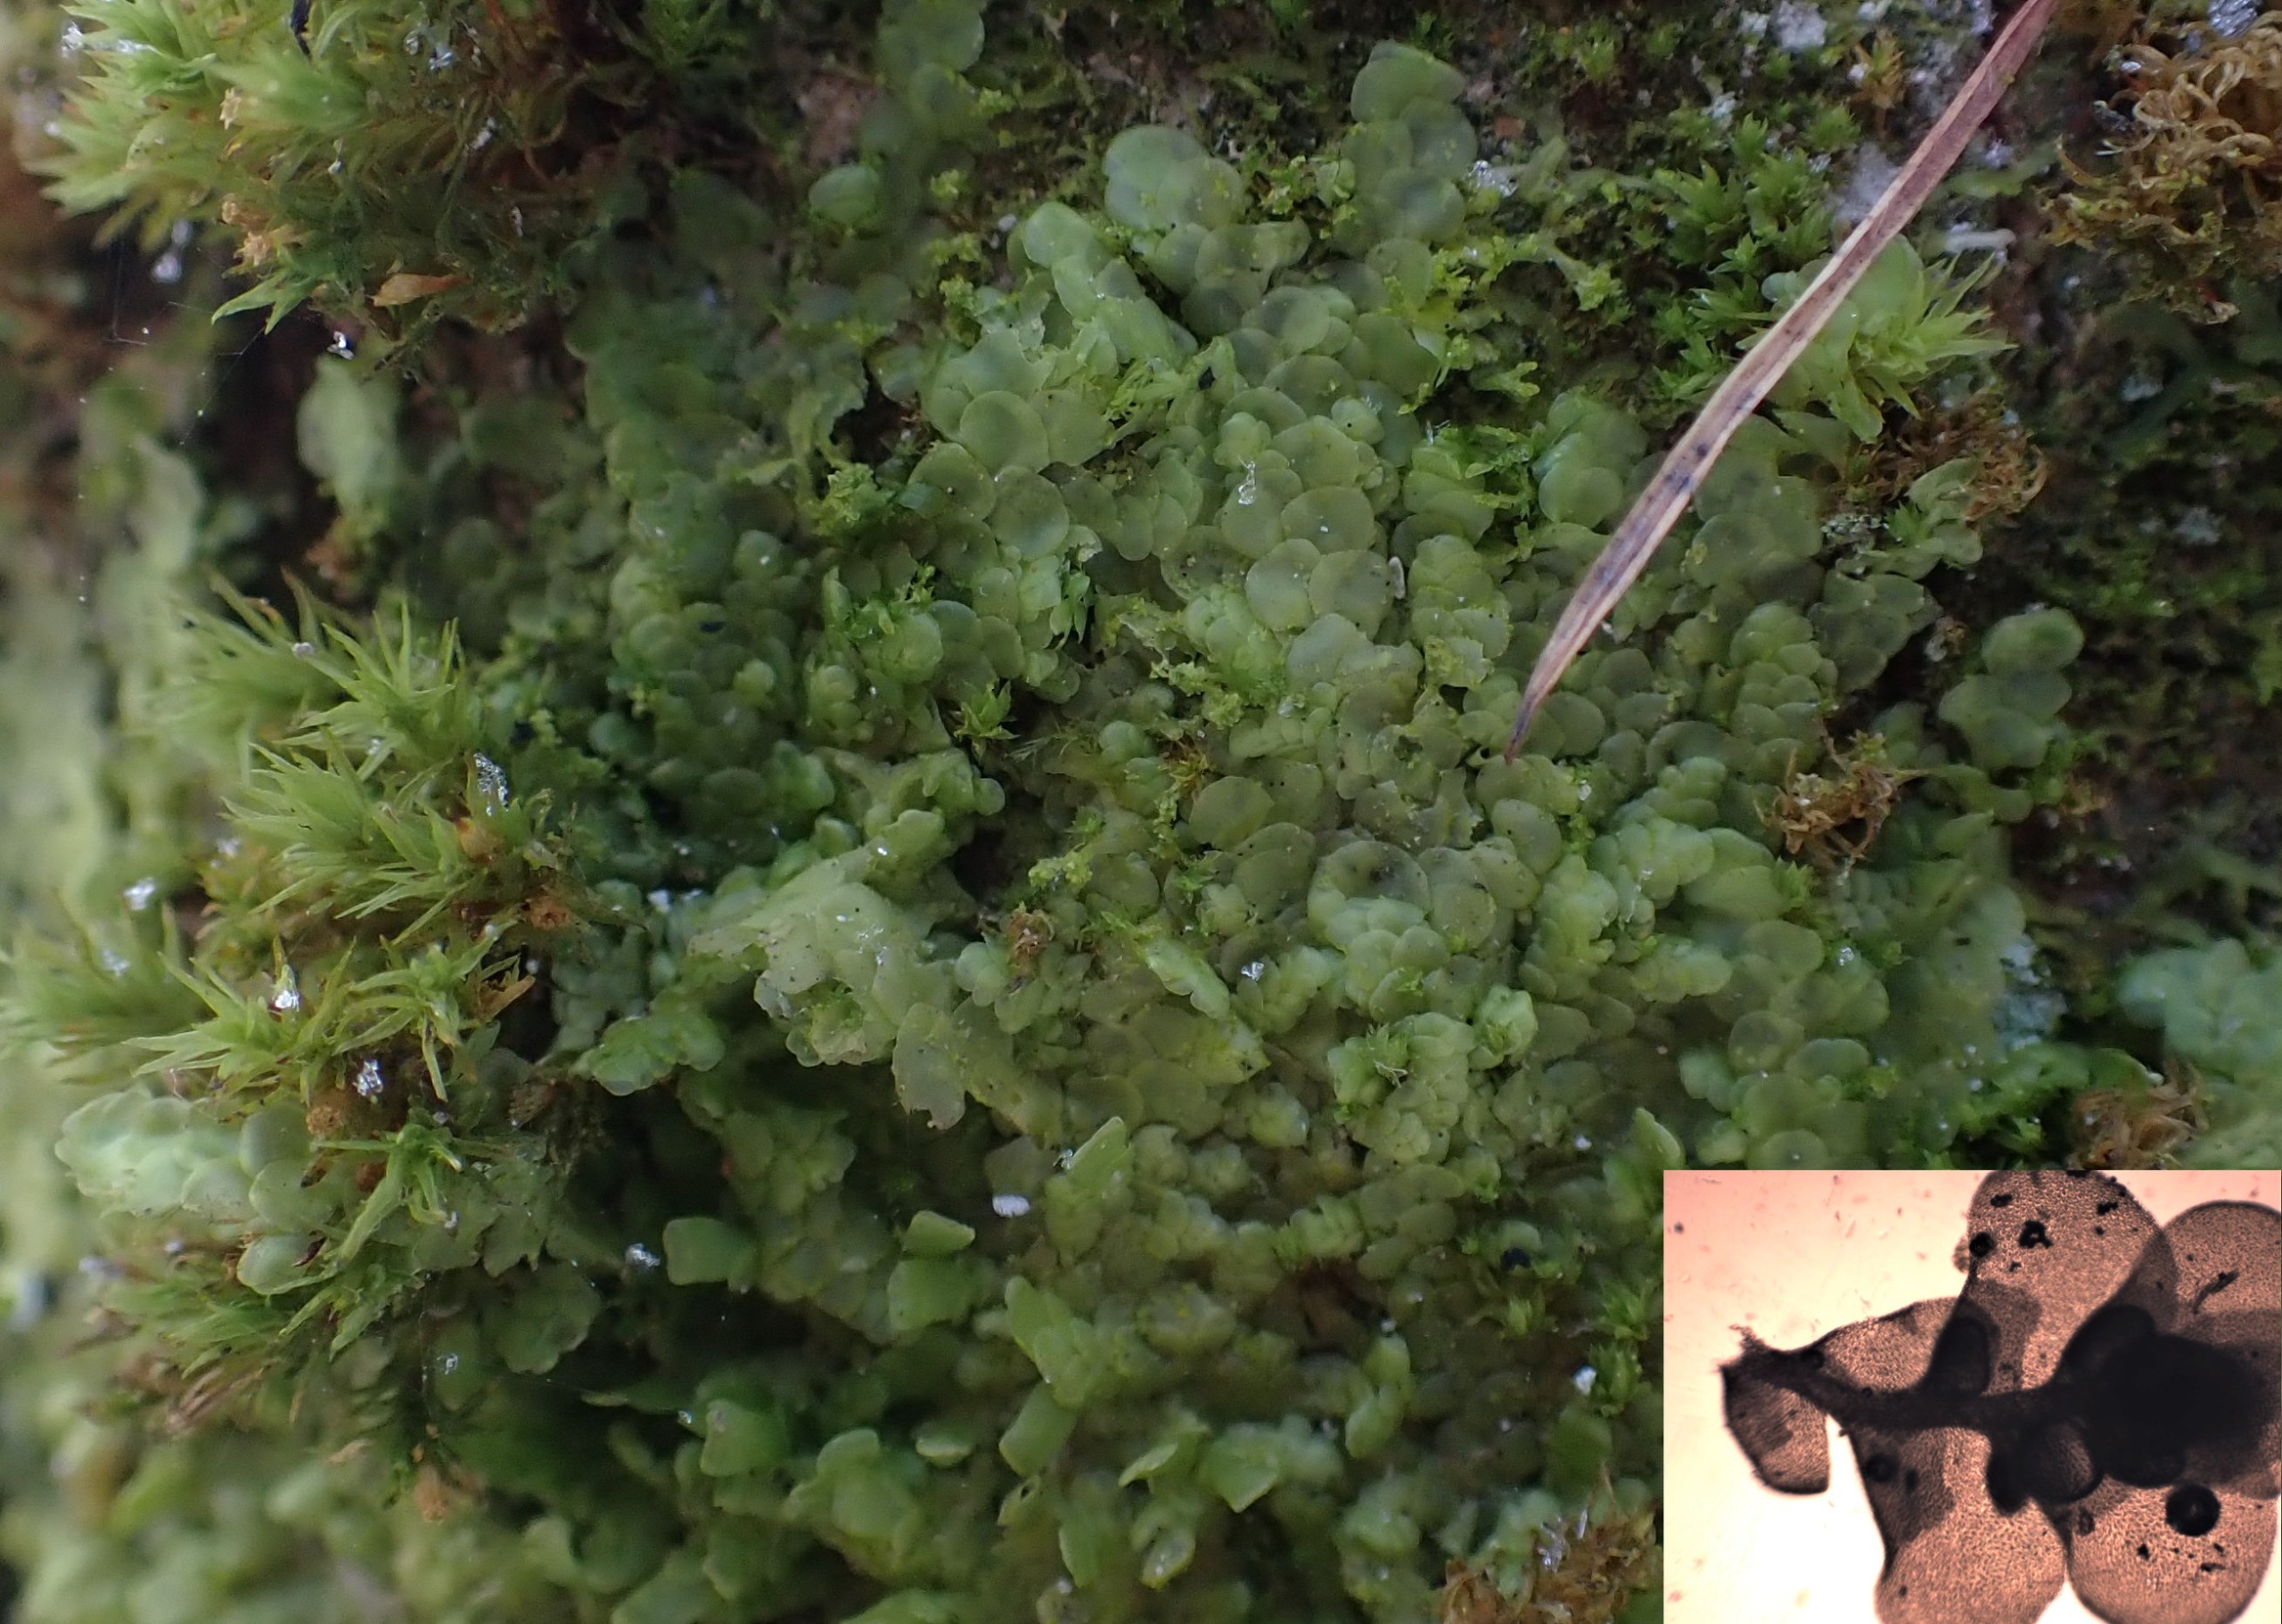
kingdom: Plantae
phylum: Marchantiophyta
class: Jungermanniopsida
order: Porellales
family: Radulaceae
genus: Radula
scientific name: Radula complanata
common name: Almindelig spartelmos
